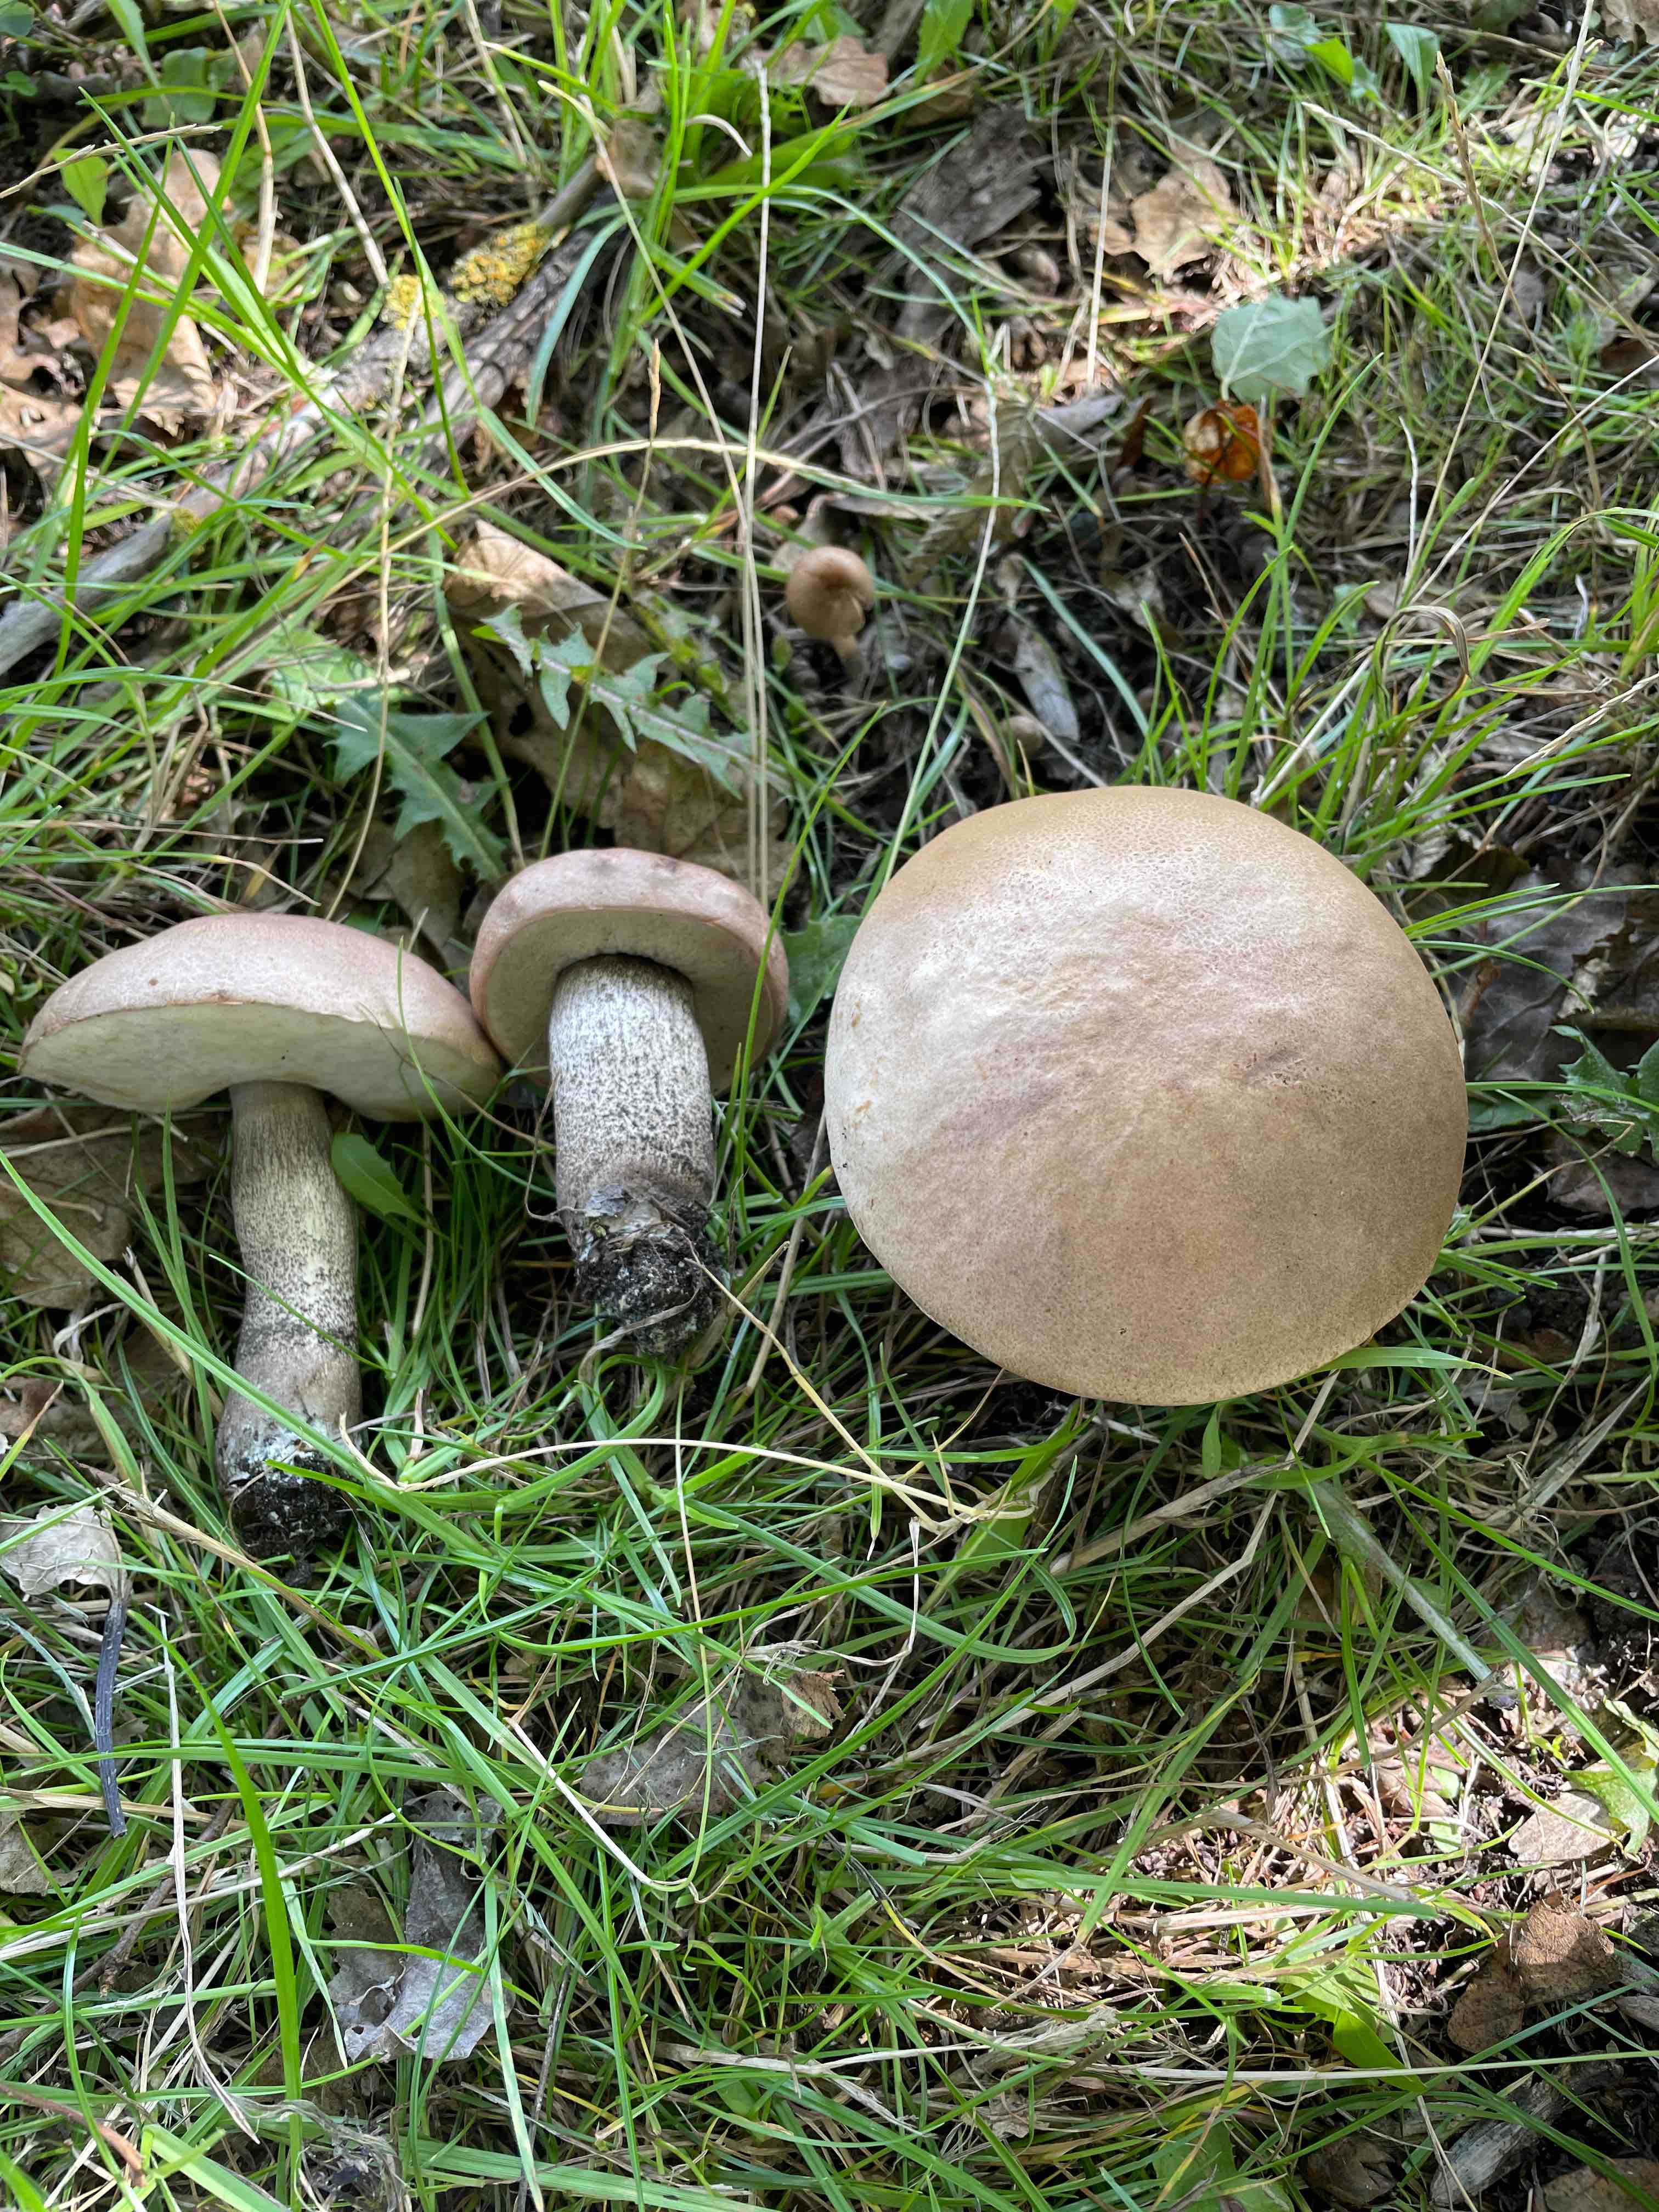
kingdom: Fungi
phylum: Basidiomycota
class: Agaricomycetes
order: Boletales
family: Boletaceae
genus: Leccinum
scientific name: Leccinum duriusculum
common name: poppel-skælrørhat
